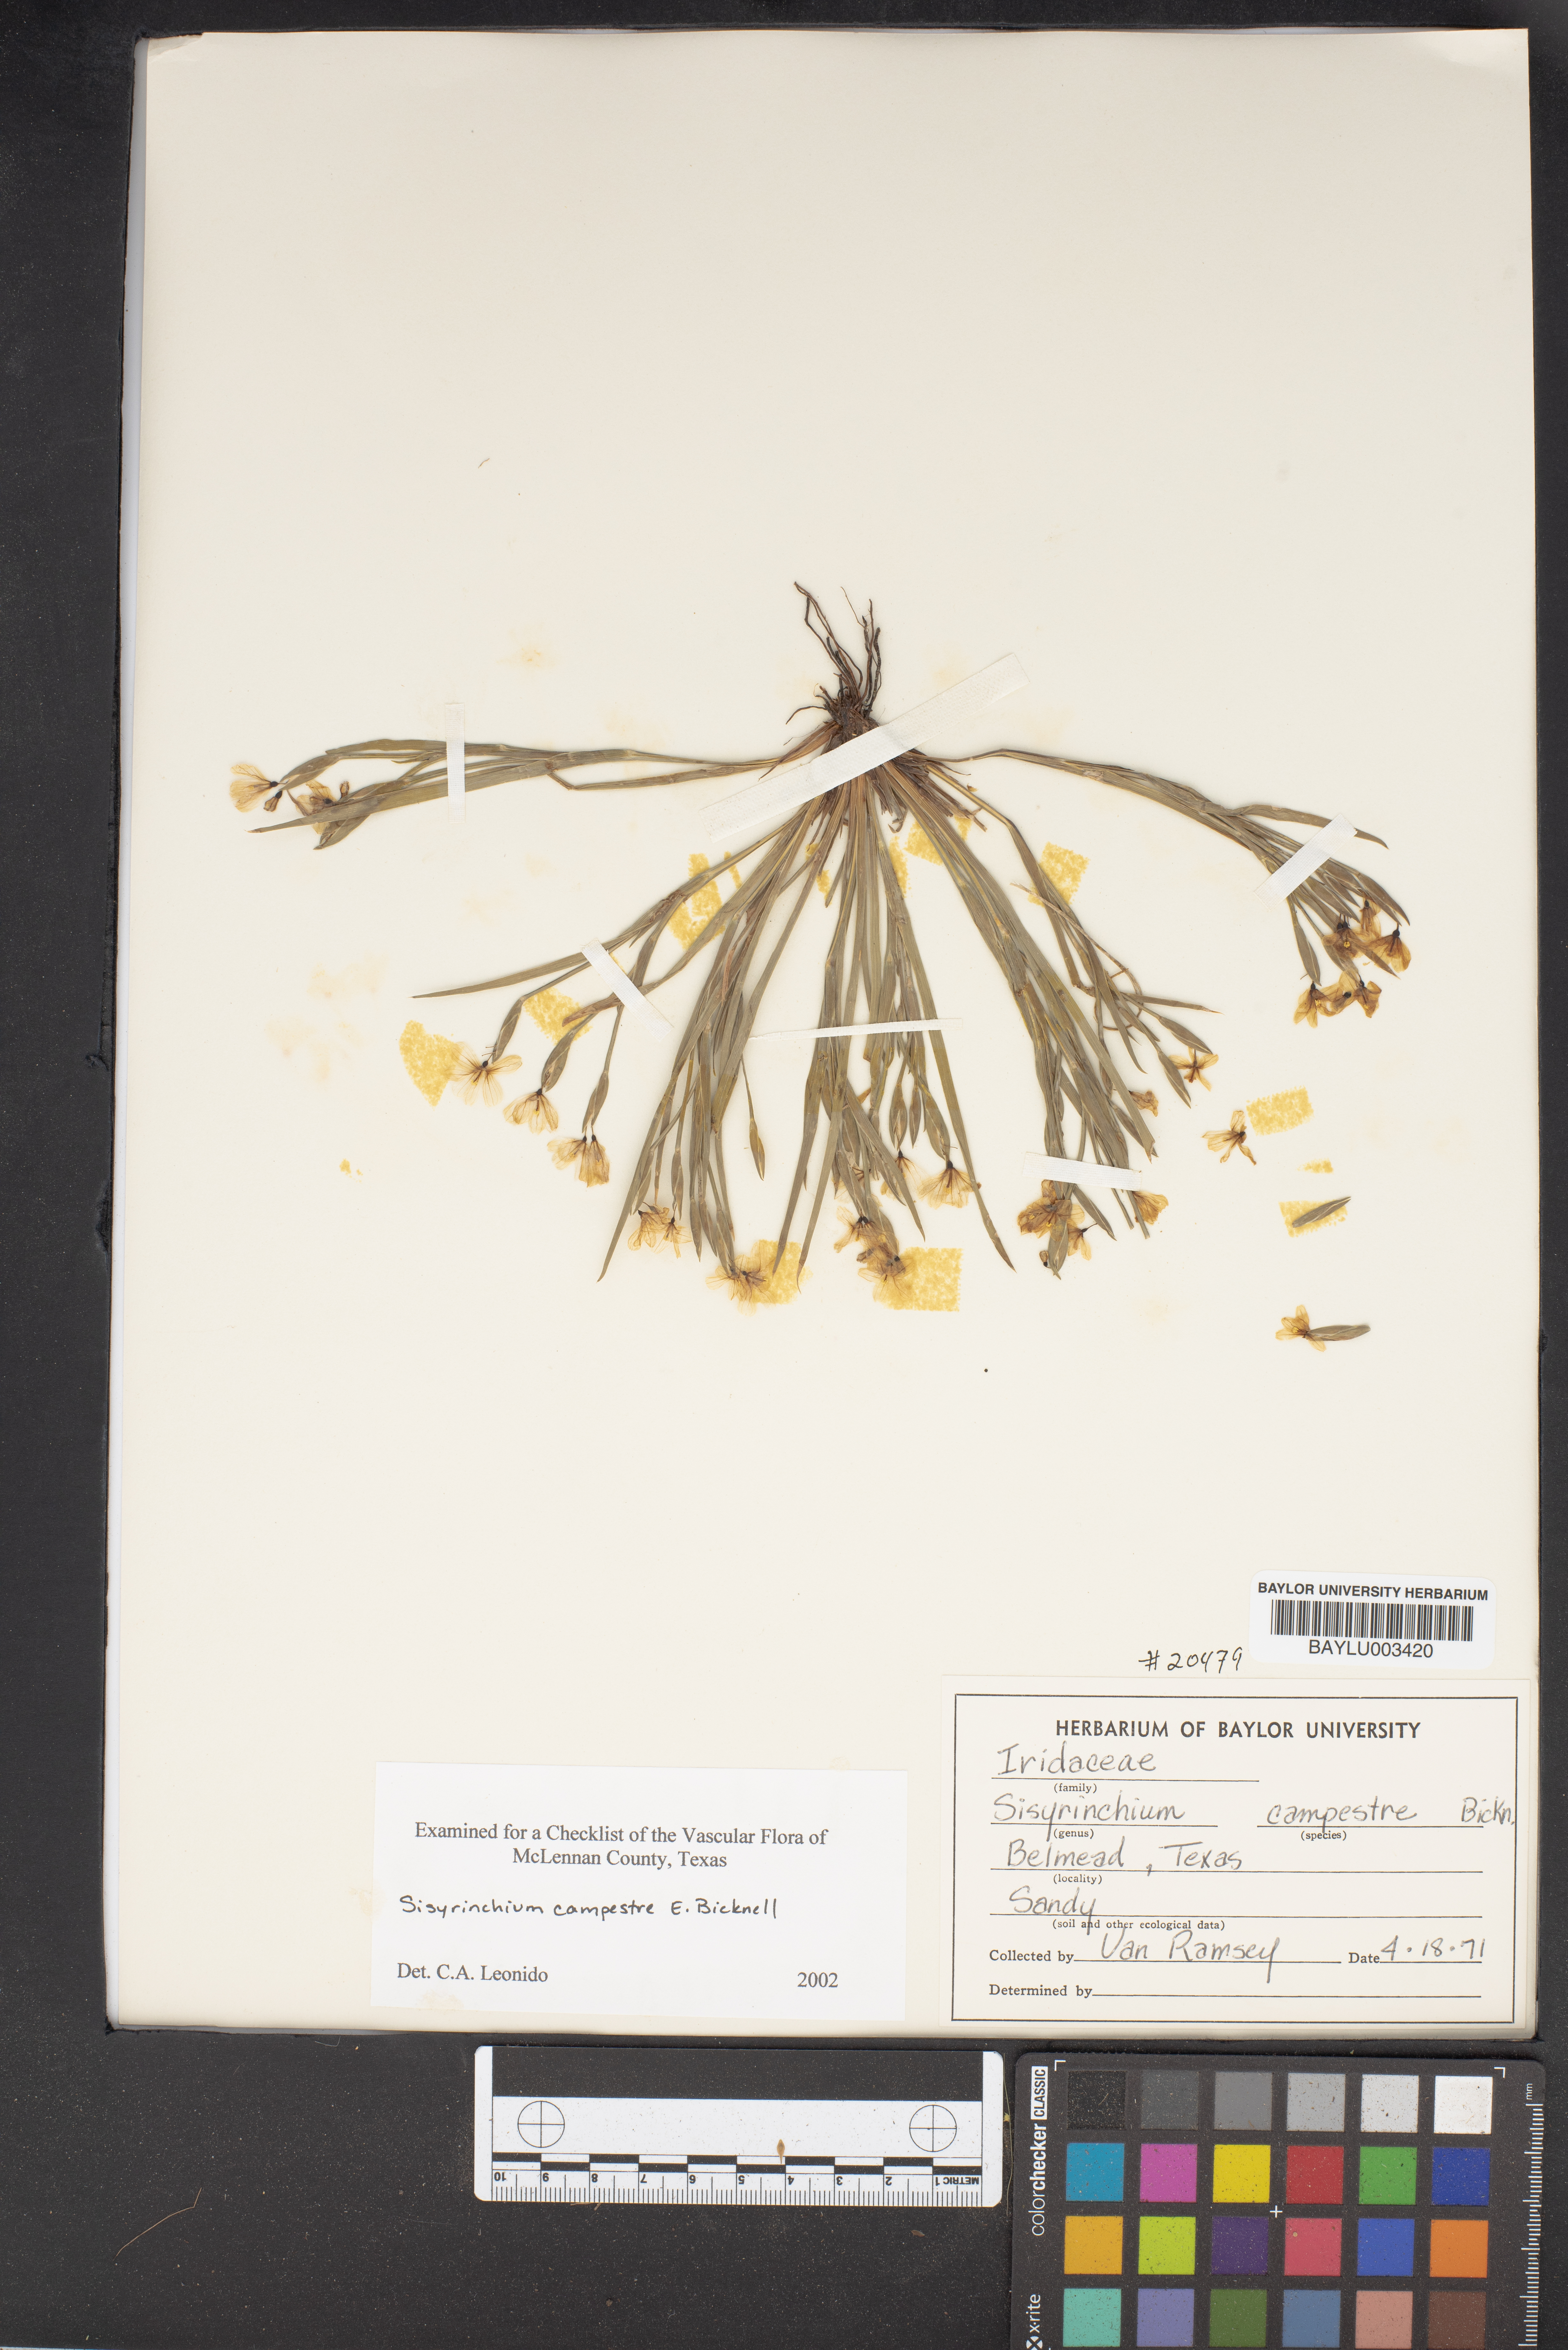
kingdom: Plantae
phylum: Tracheophyta
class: Liliopsida
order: Asparagales
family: Iridaceae
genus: Sisyrinchium
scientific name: Sisyrinchium campestre
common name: Prairie blue-eyed-grass
